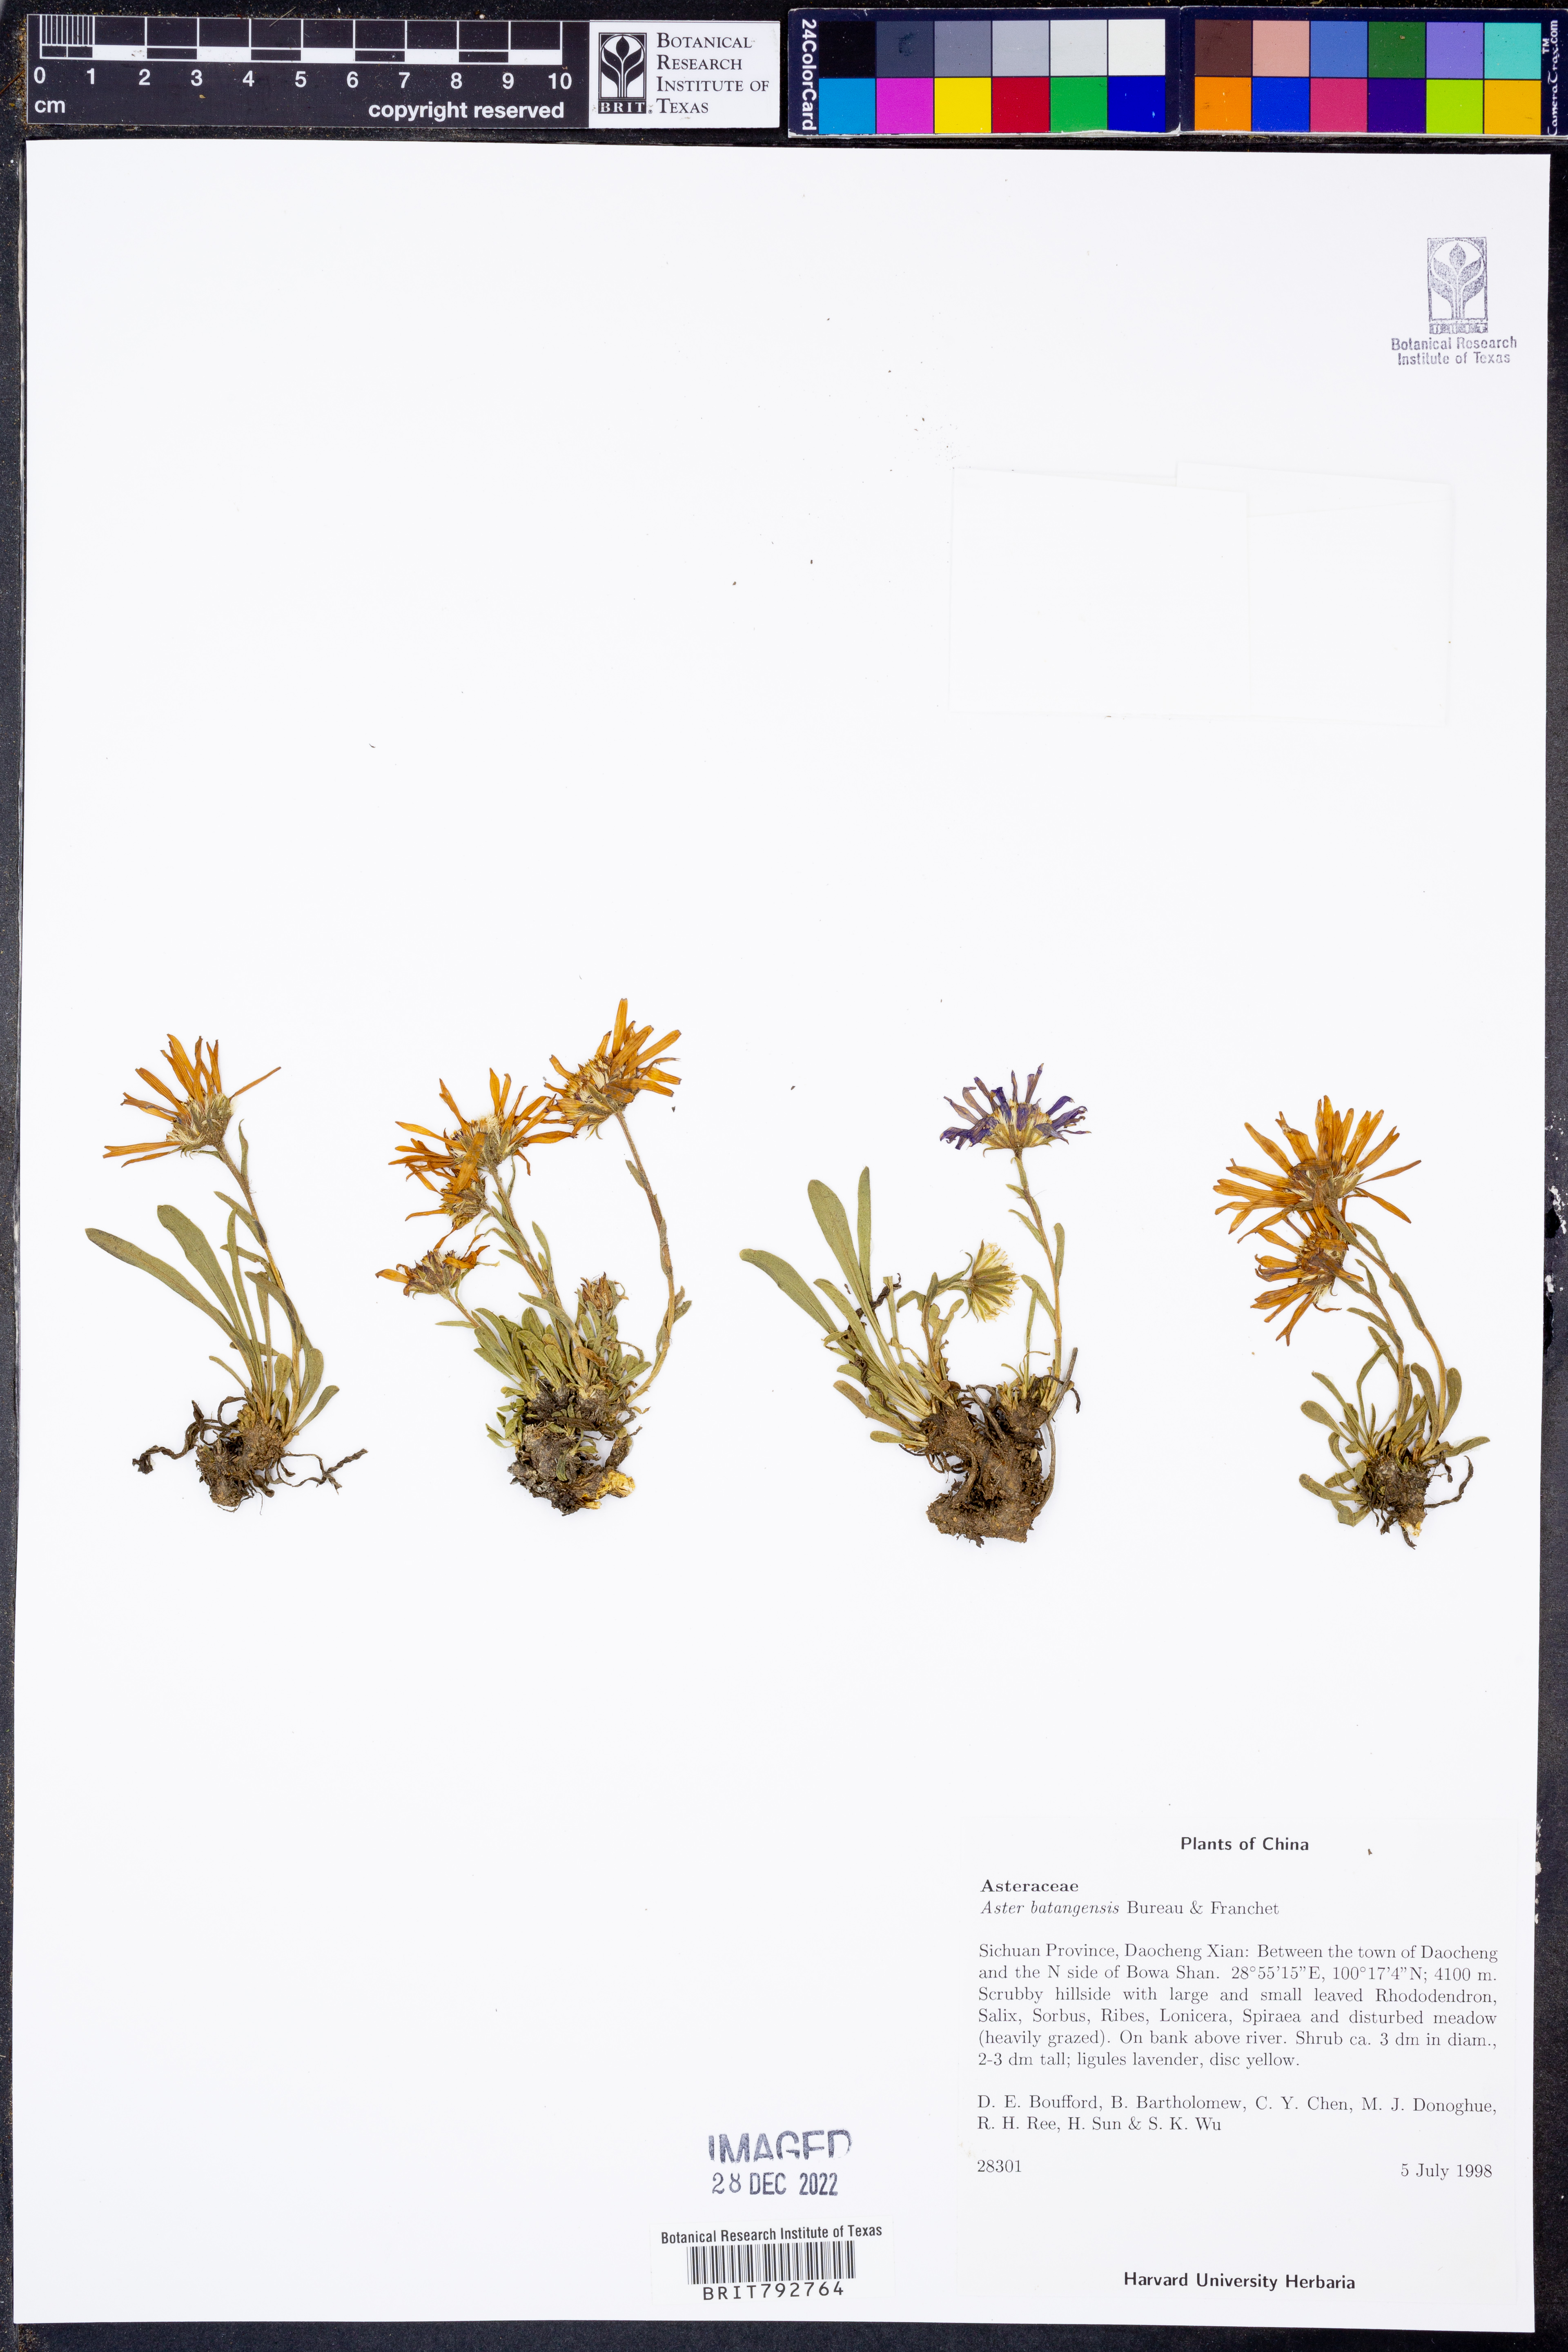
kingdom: Plantae
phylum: Tracheophyta
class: Magnoliopsida
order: Asterales
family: Asteraceae
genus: Geothamnus
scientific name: Geothamnus batangensis
